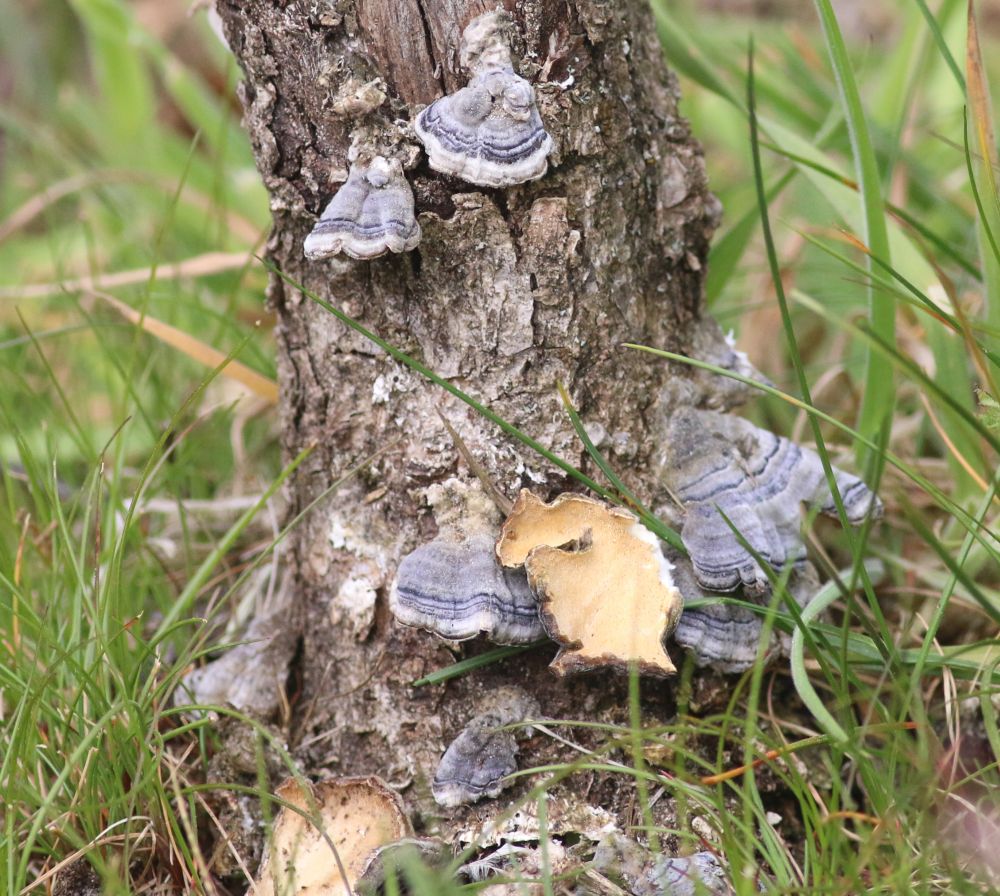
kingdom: Fungi
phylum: Basidiomycota
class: Agaricomycetes
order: Polyporales
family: Polyporaceae
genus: Trametes
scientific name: Trametes versicolor
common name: broget læderporesvamp
